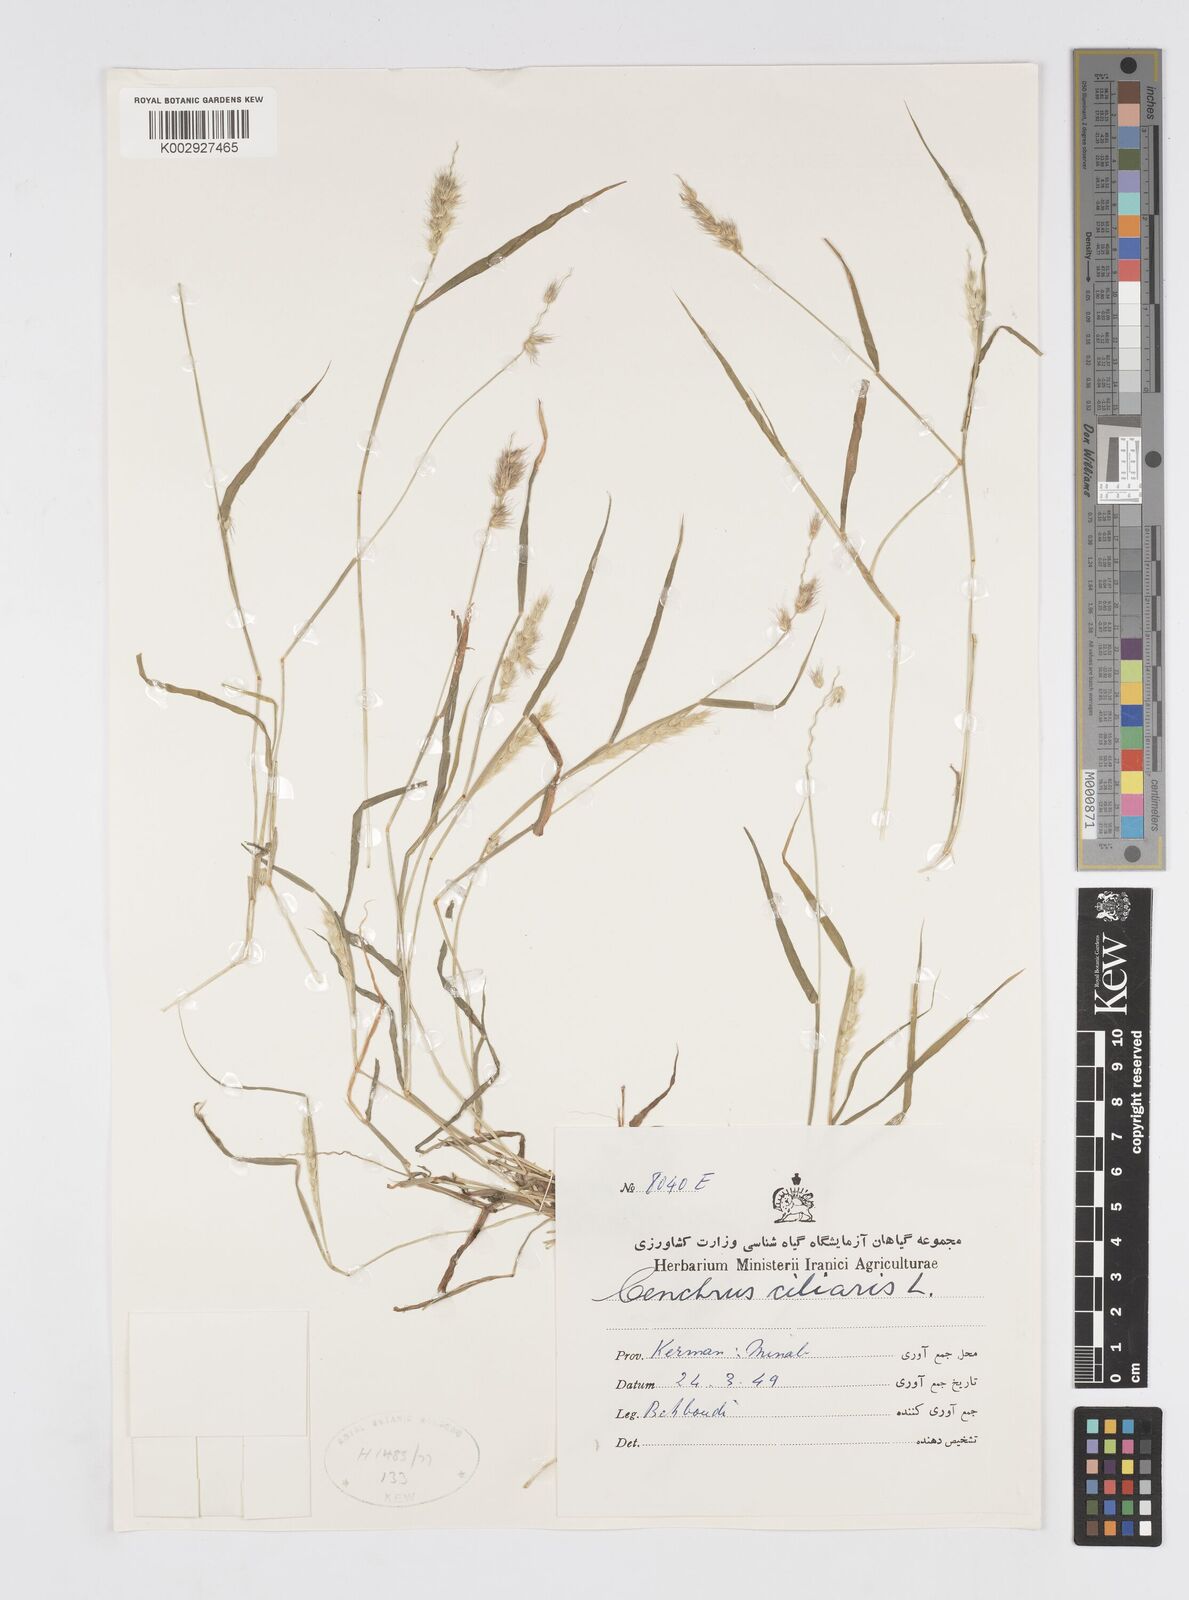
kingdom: Plantae
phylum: Tracheophyta
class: Liliopsida
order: Poales
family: Poaceae
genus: Cenchrus
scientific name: Cenchrus pennisetiformis
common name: Cloncurry
